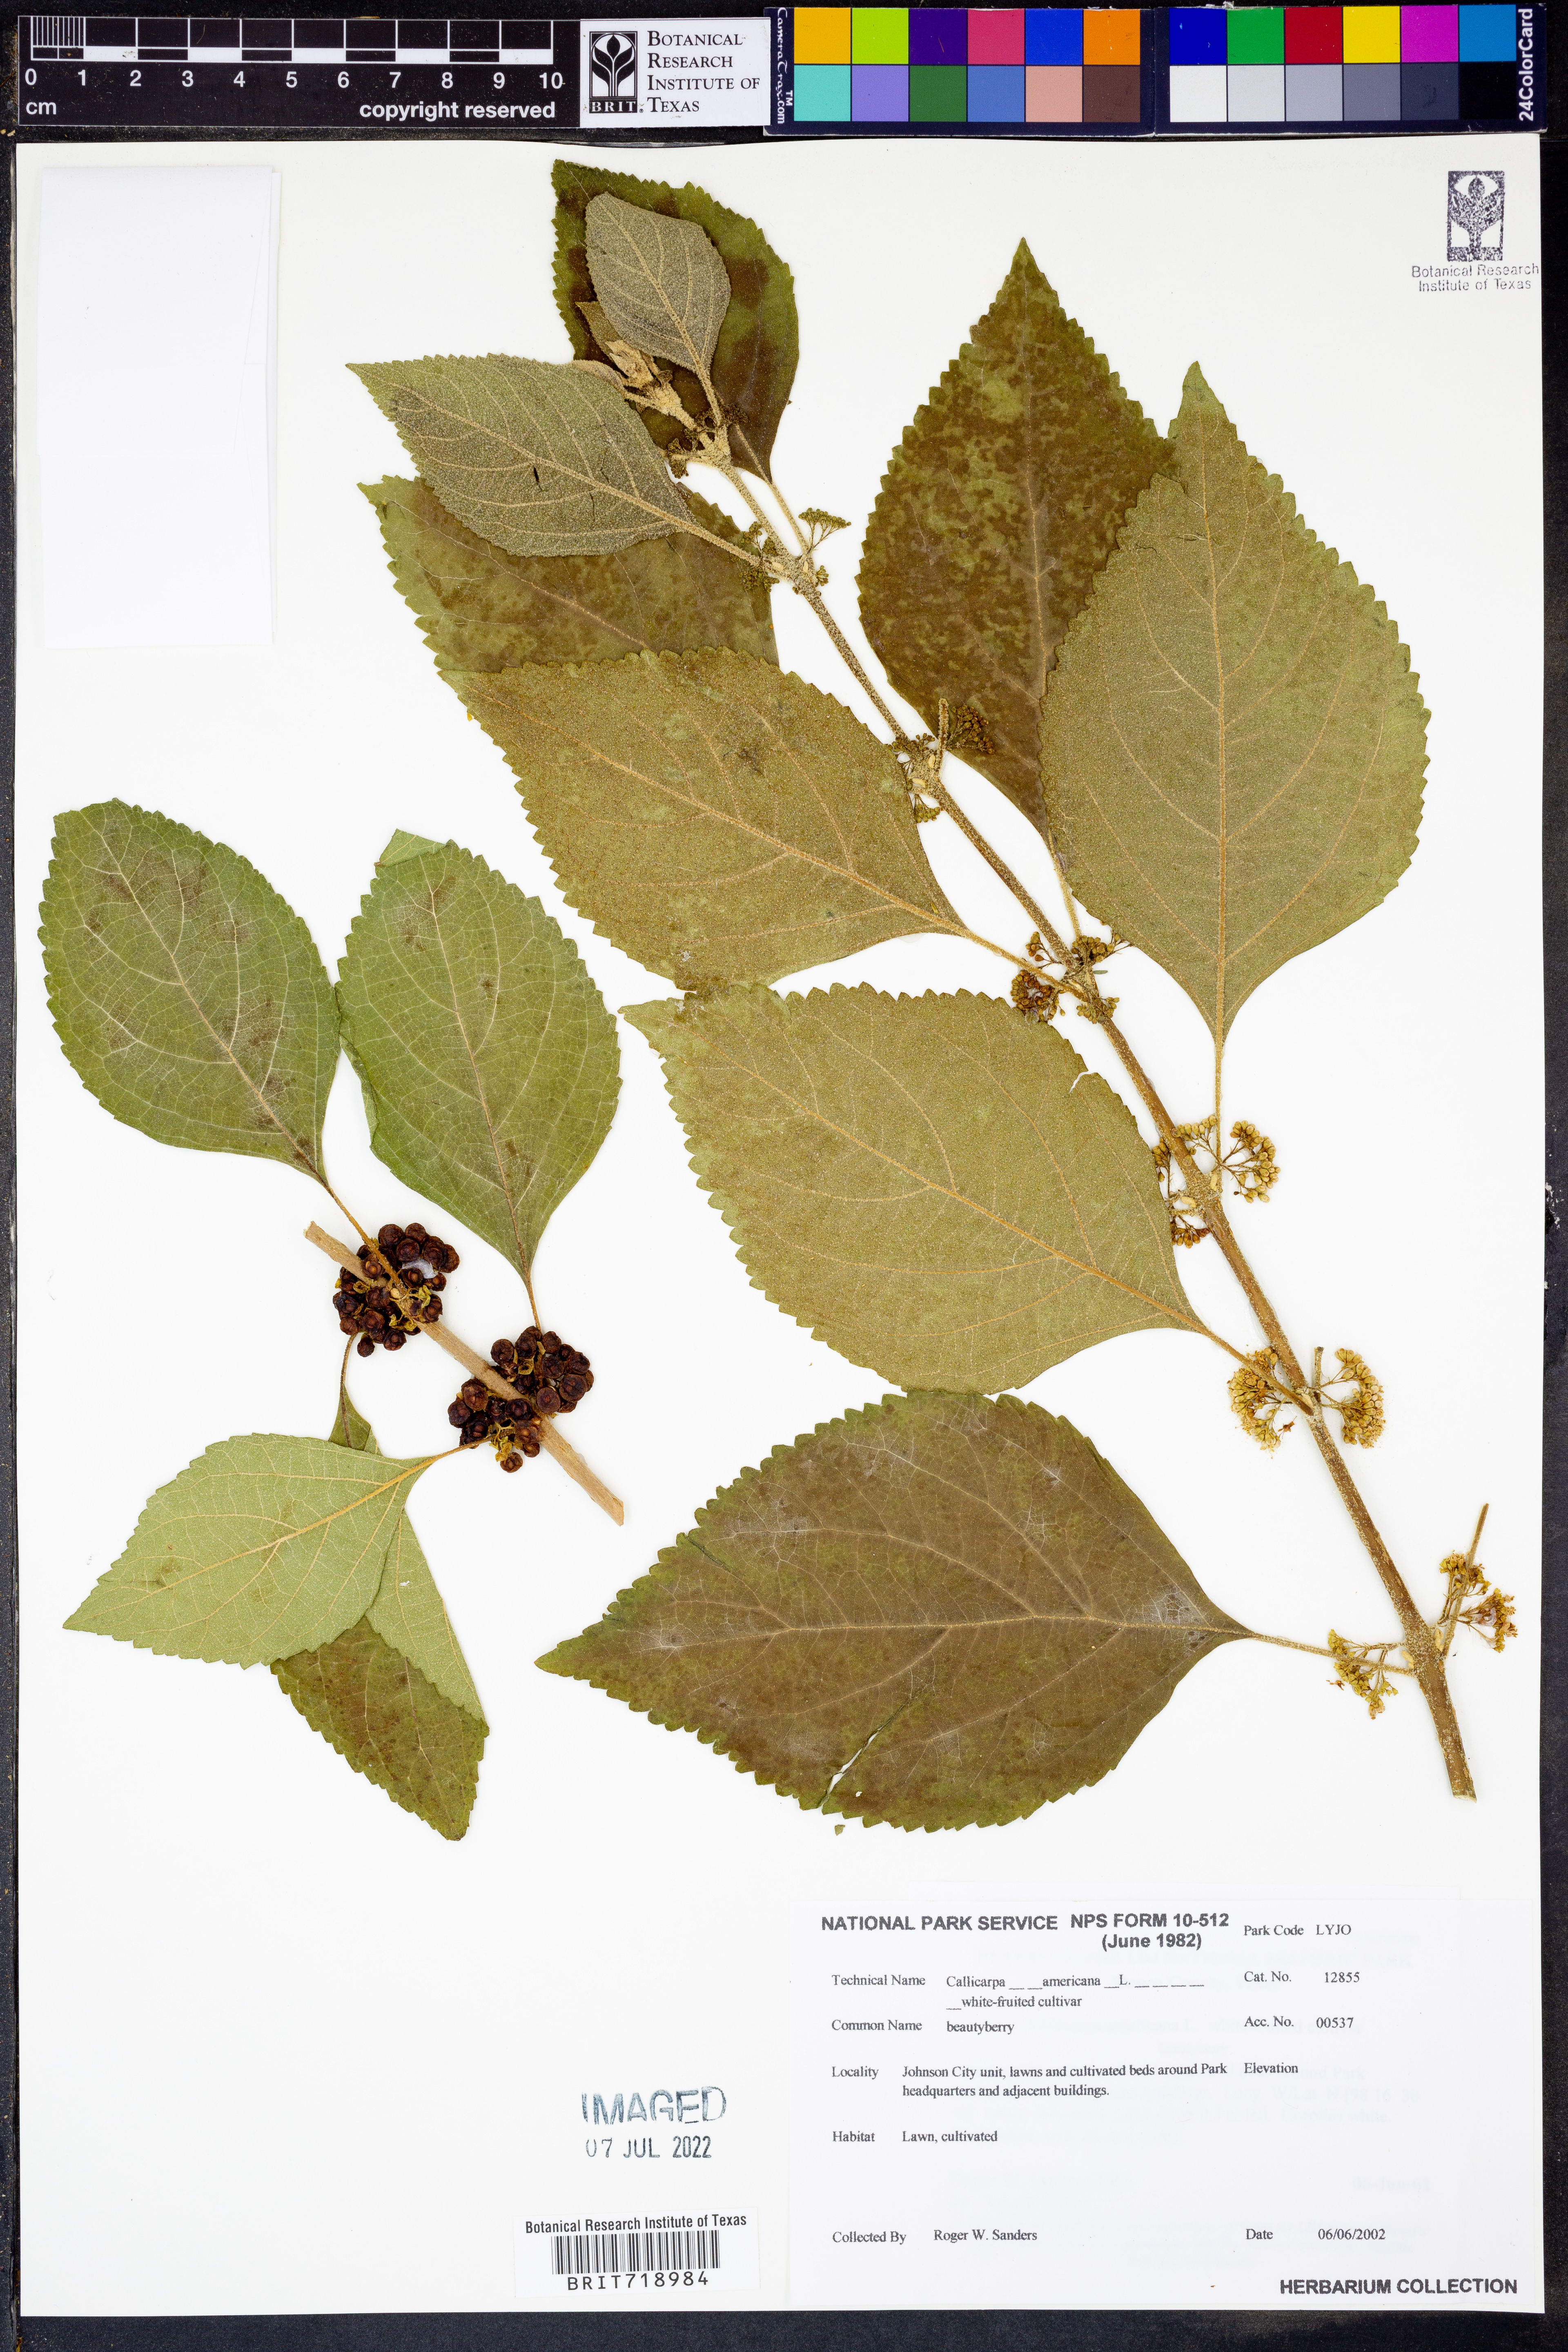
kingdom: Plantae
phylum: Tracheophyta
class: Magnoliopsida
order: Lamiales
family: Lamiaceae
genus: Callicarpa
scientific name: Callicarpa americana
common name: American beautyberry
